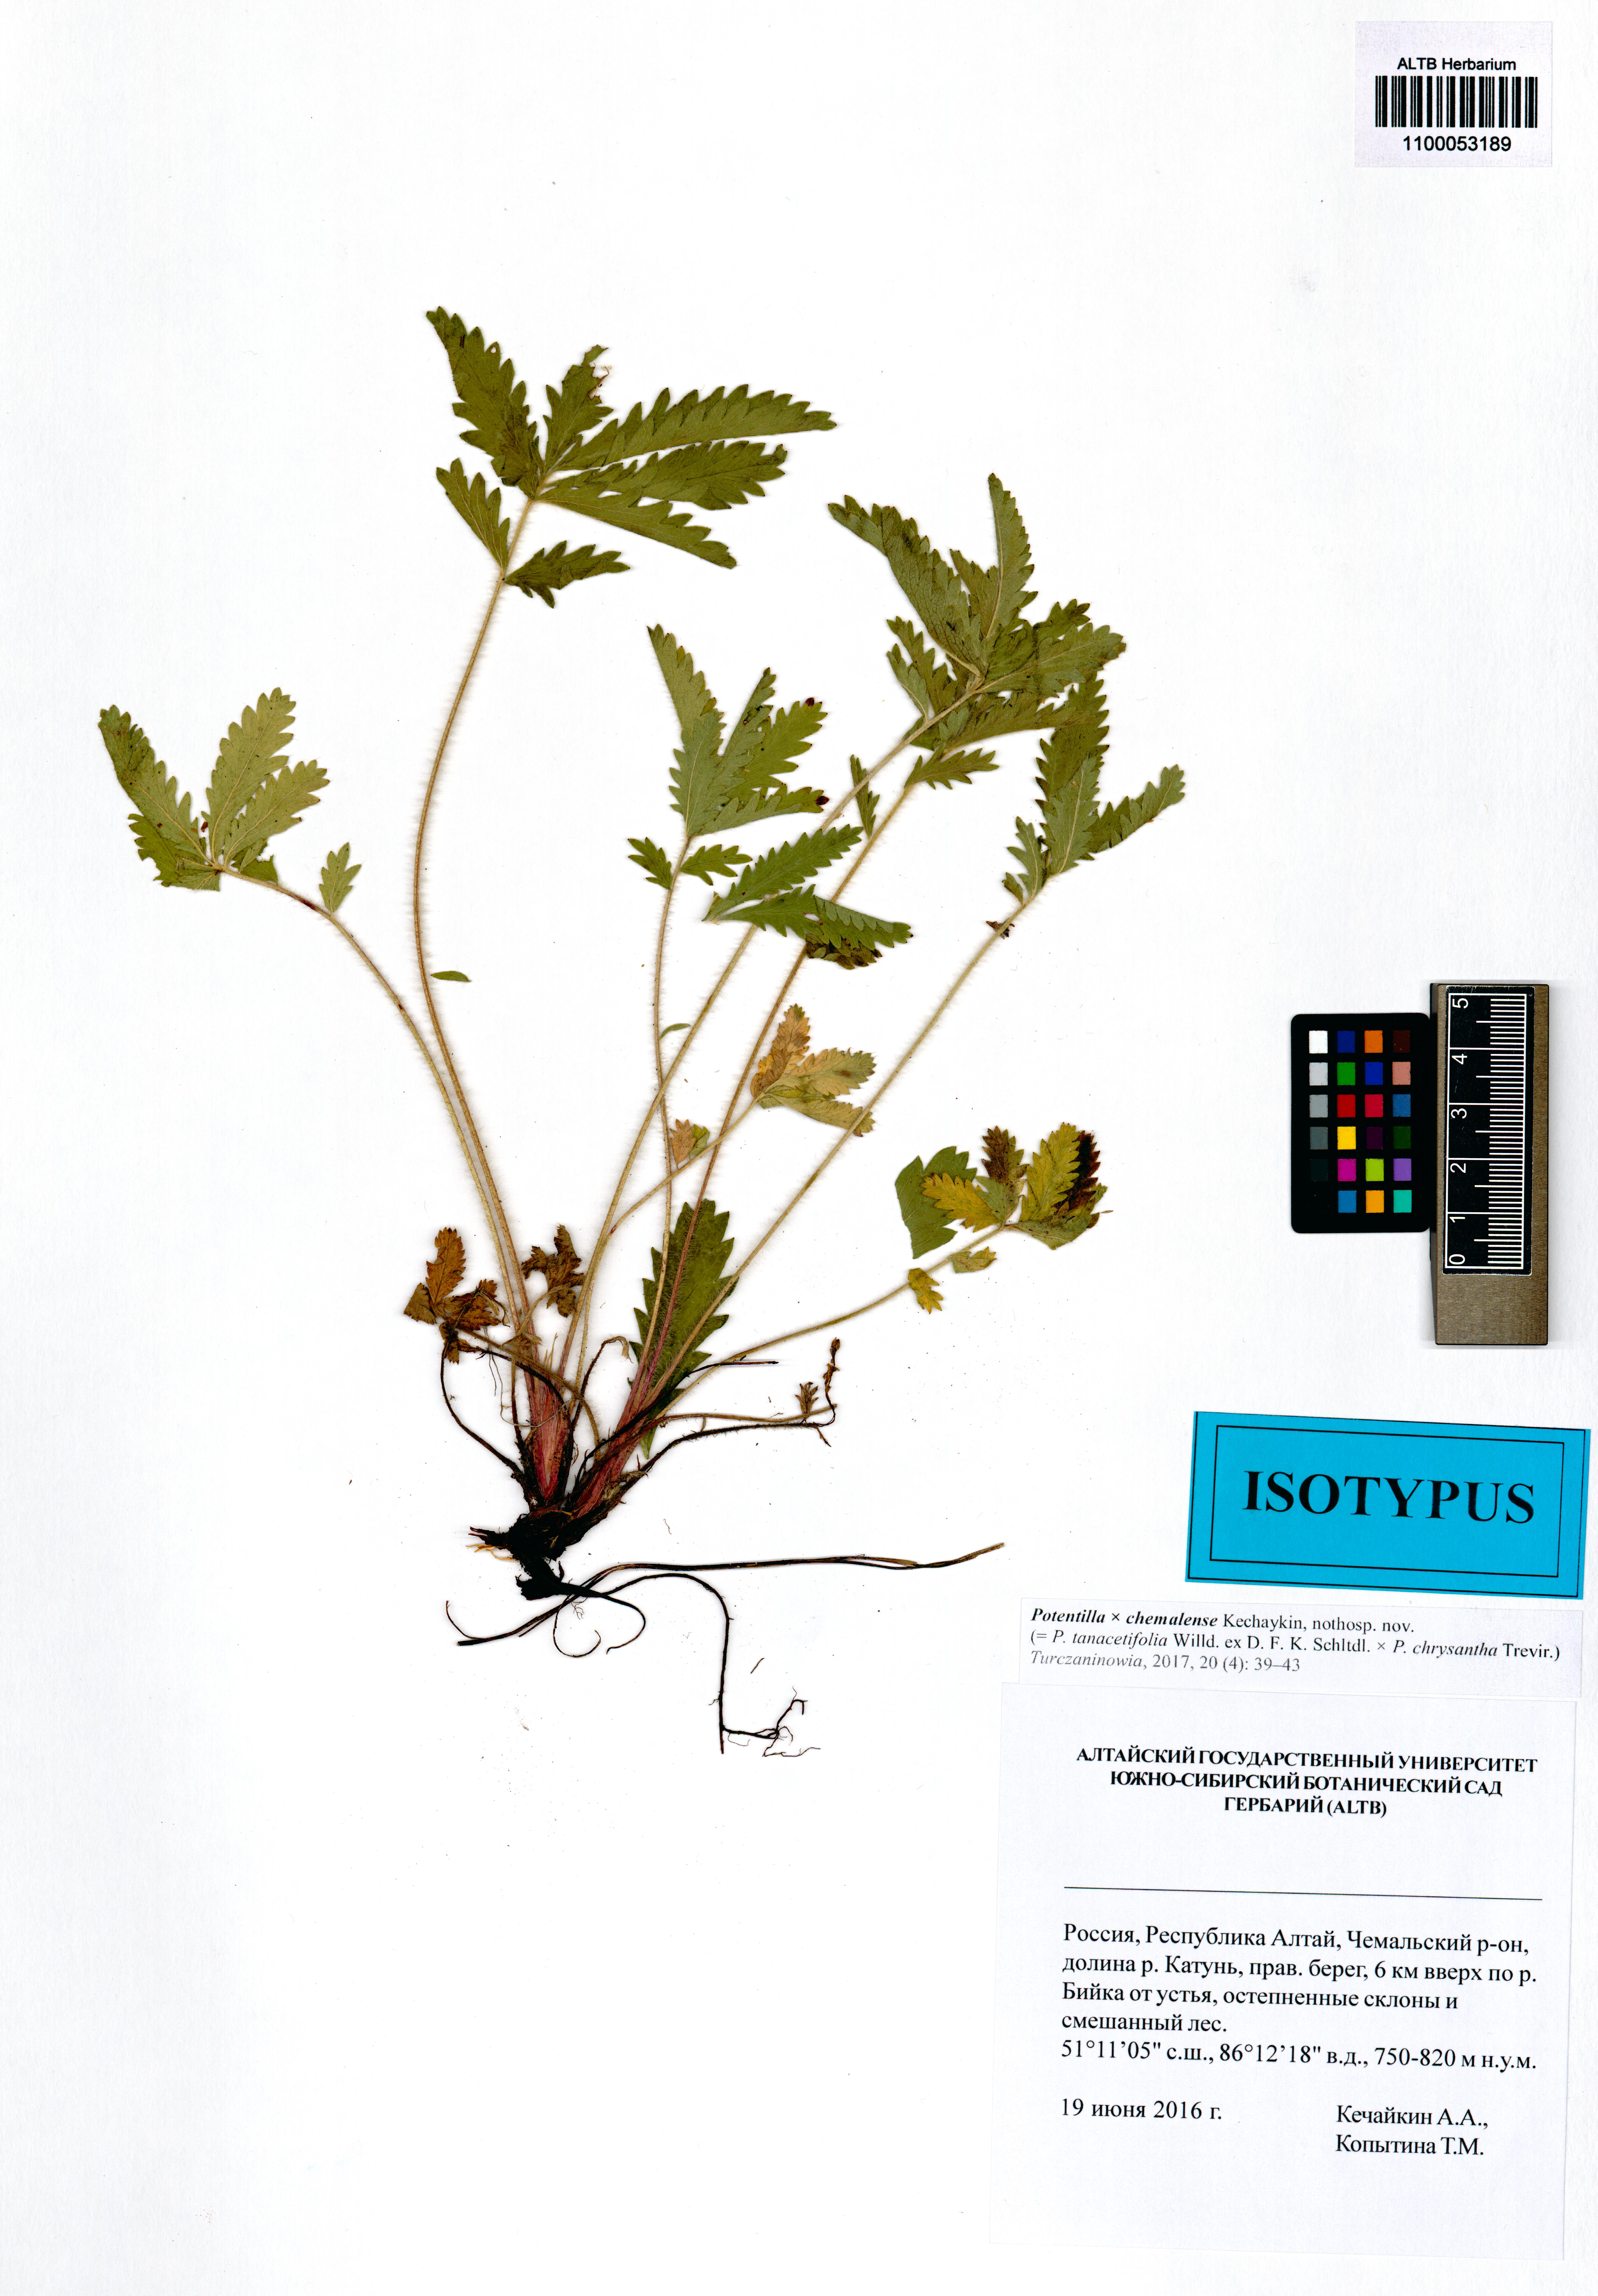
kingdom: Plantae
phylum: Tracheophyta
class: Magnoliopsida
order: Rosales
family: Rosaceae
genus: Potentilla
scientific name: Potentilla chemalensis
